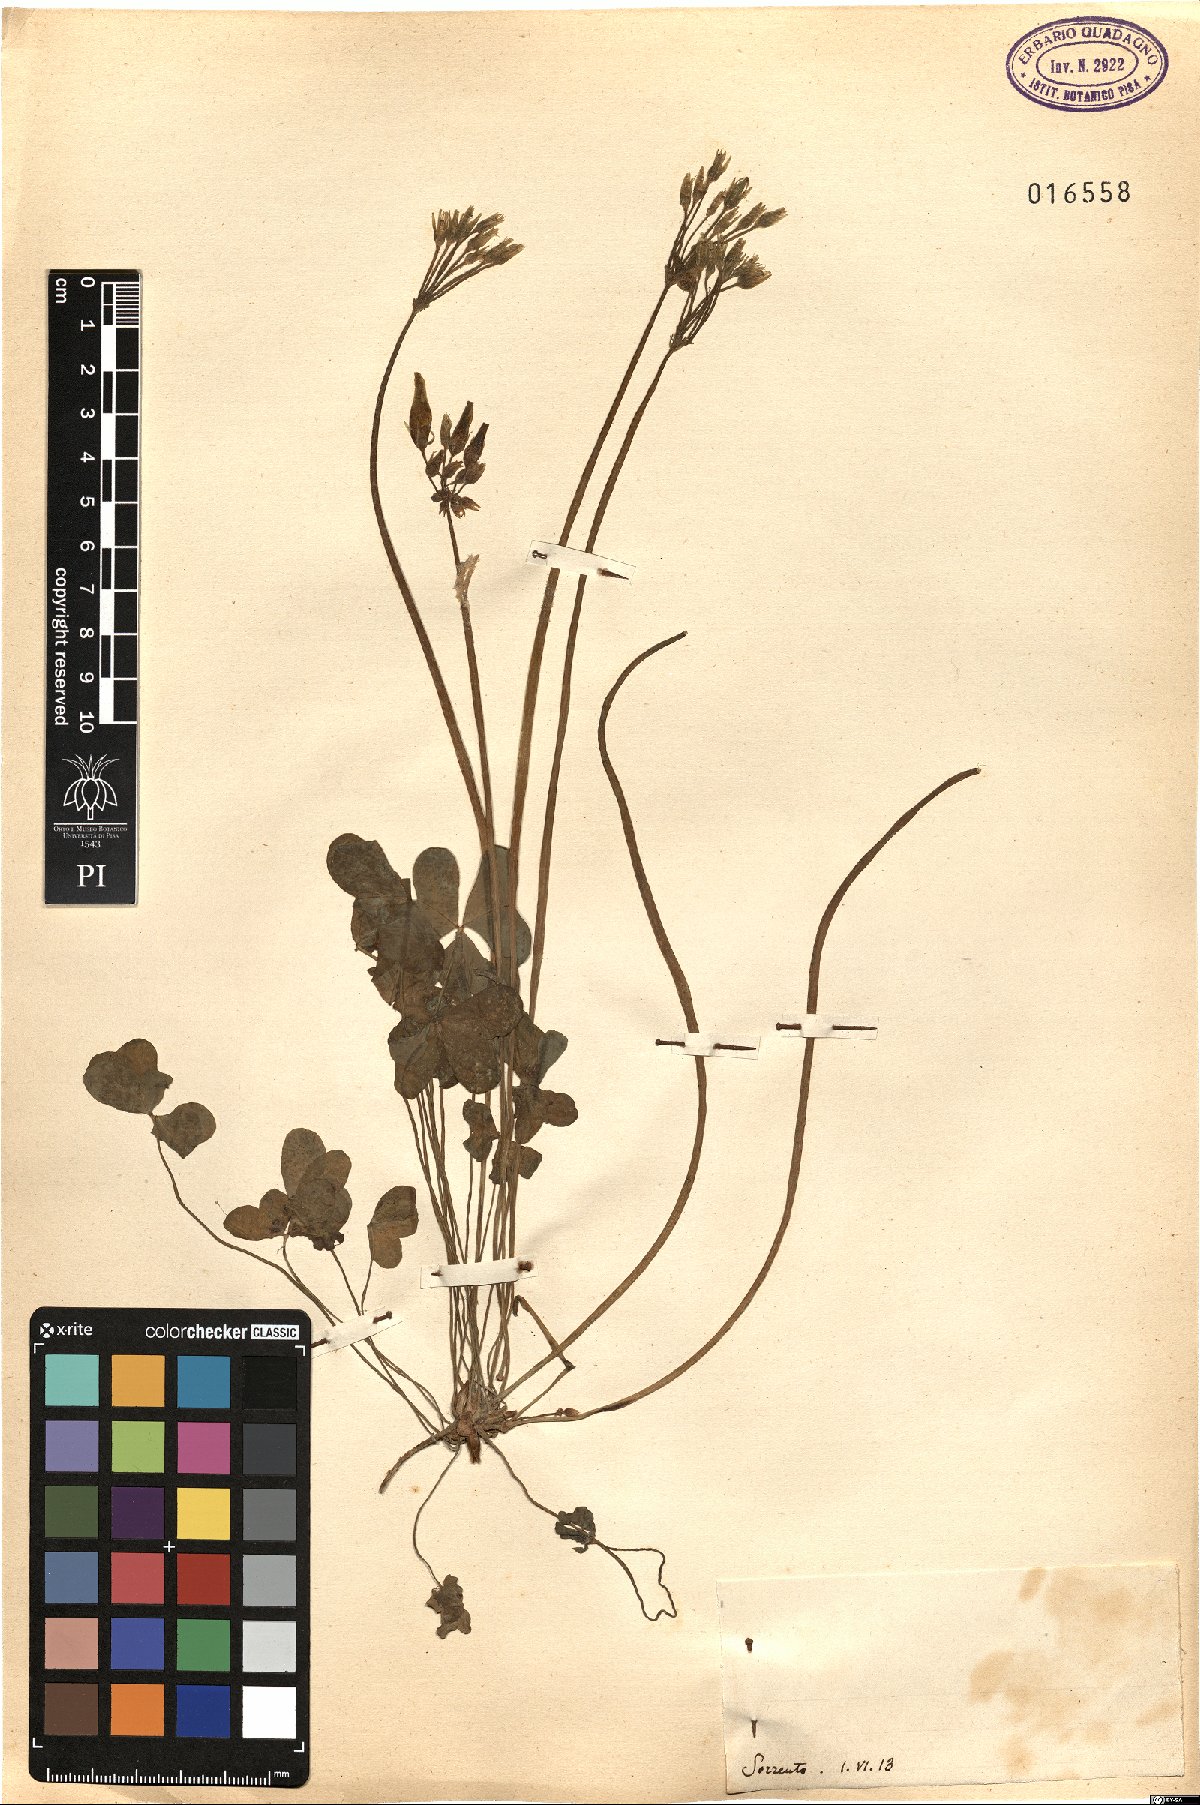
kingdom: Plantae
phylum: Tracheophyta
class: Magnoliopsida
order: Oxalidales
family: Oxalidaceae
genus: Oxalis
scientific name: Oxalis
